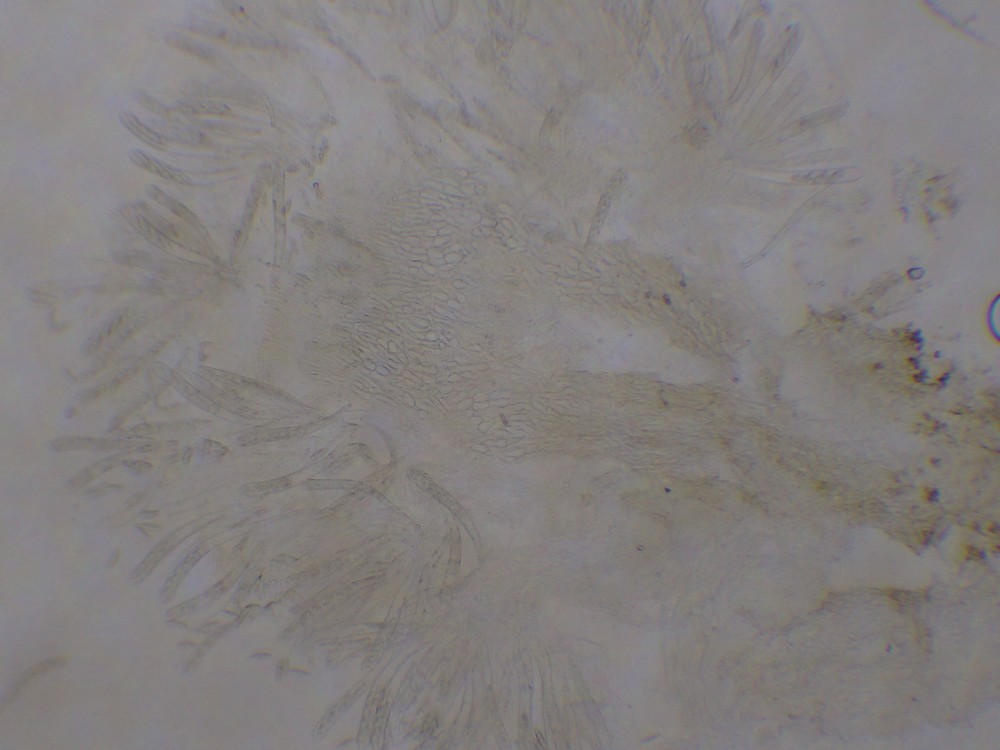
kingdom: Fungi
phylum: Ascomycota
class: Leotiomycetes
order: Helotiales
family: Pezizellaceae
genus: Allophylaria
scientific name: Allophylaria macrospora
